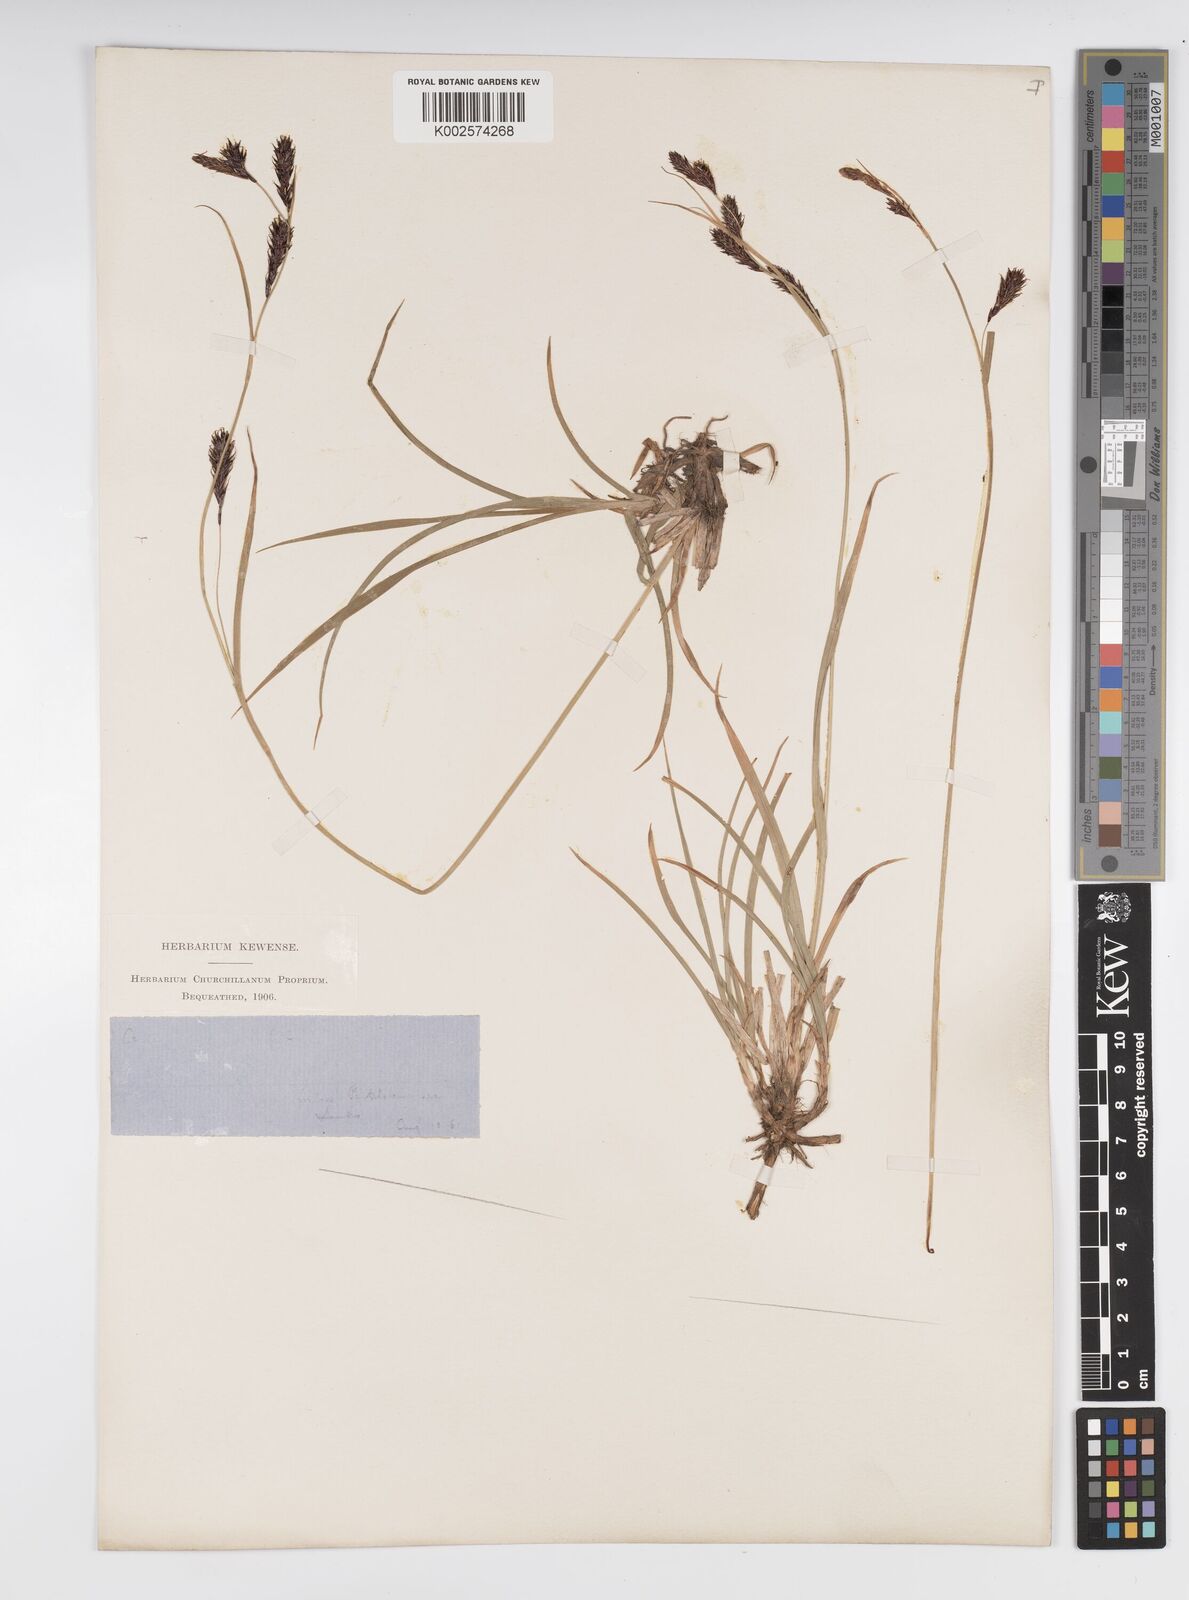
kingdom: Plantae
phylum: Tracheophyta
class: Liliopsida
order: Poales
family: Cyperaceae
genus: Carex
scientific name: Carex frigida
